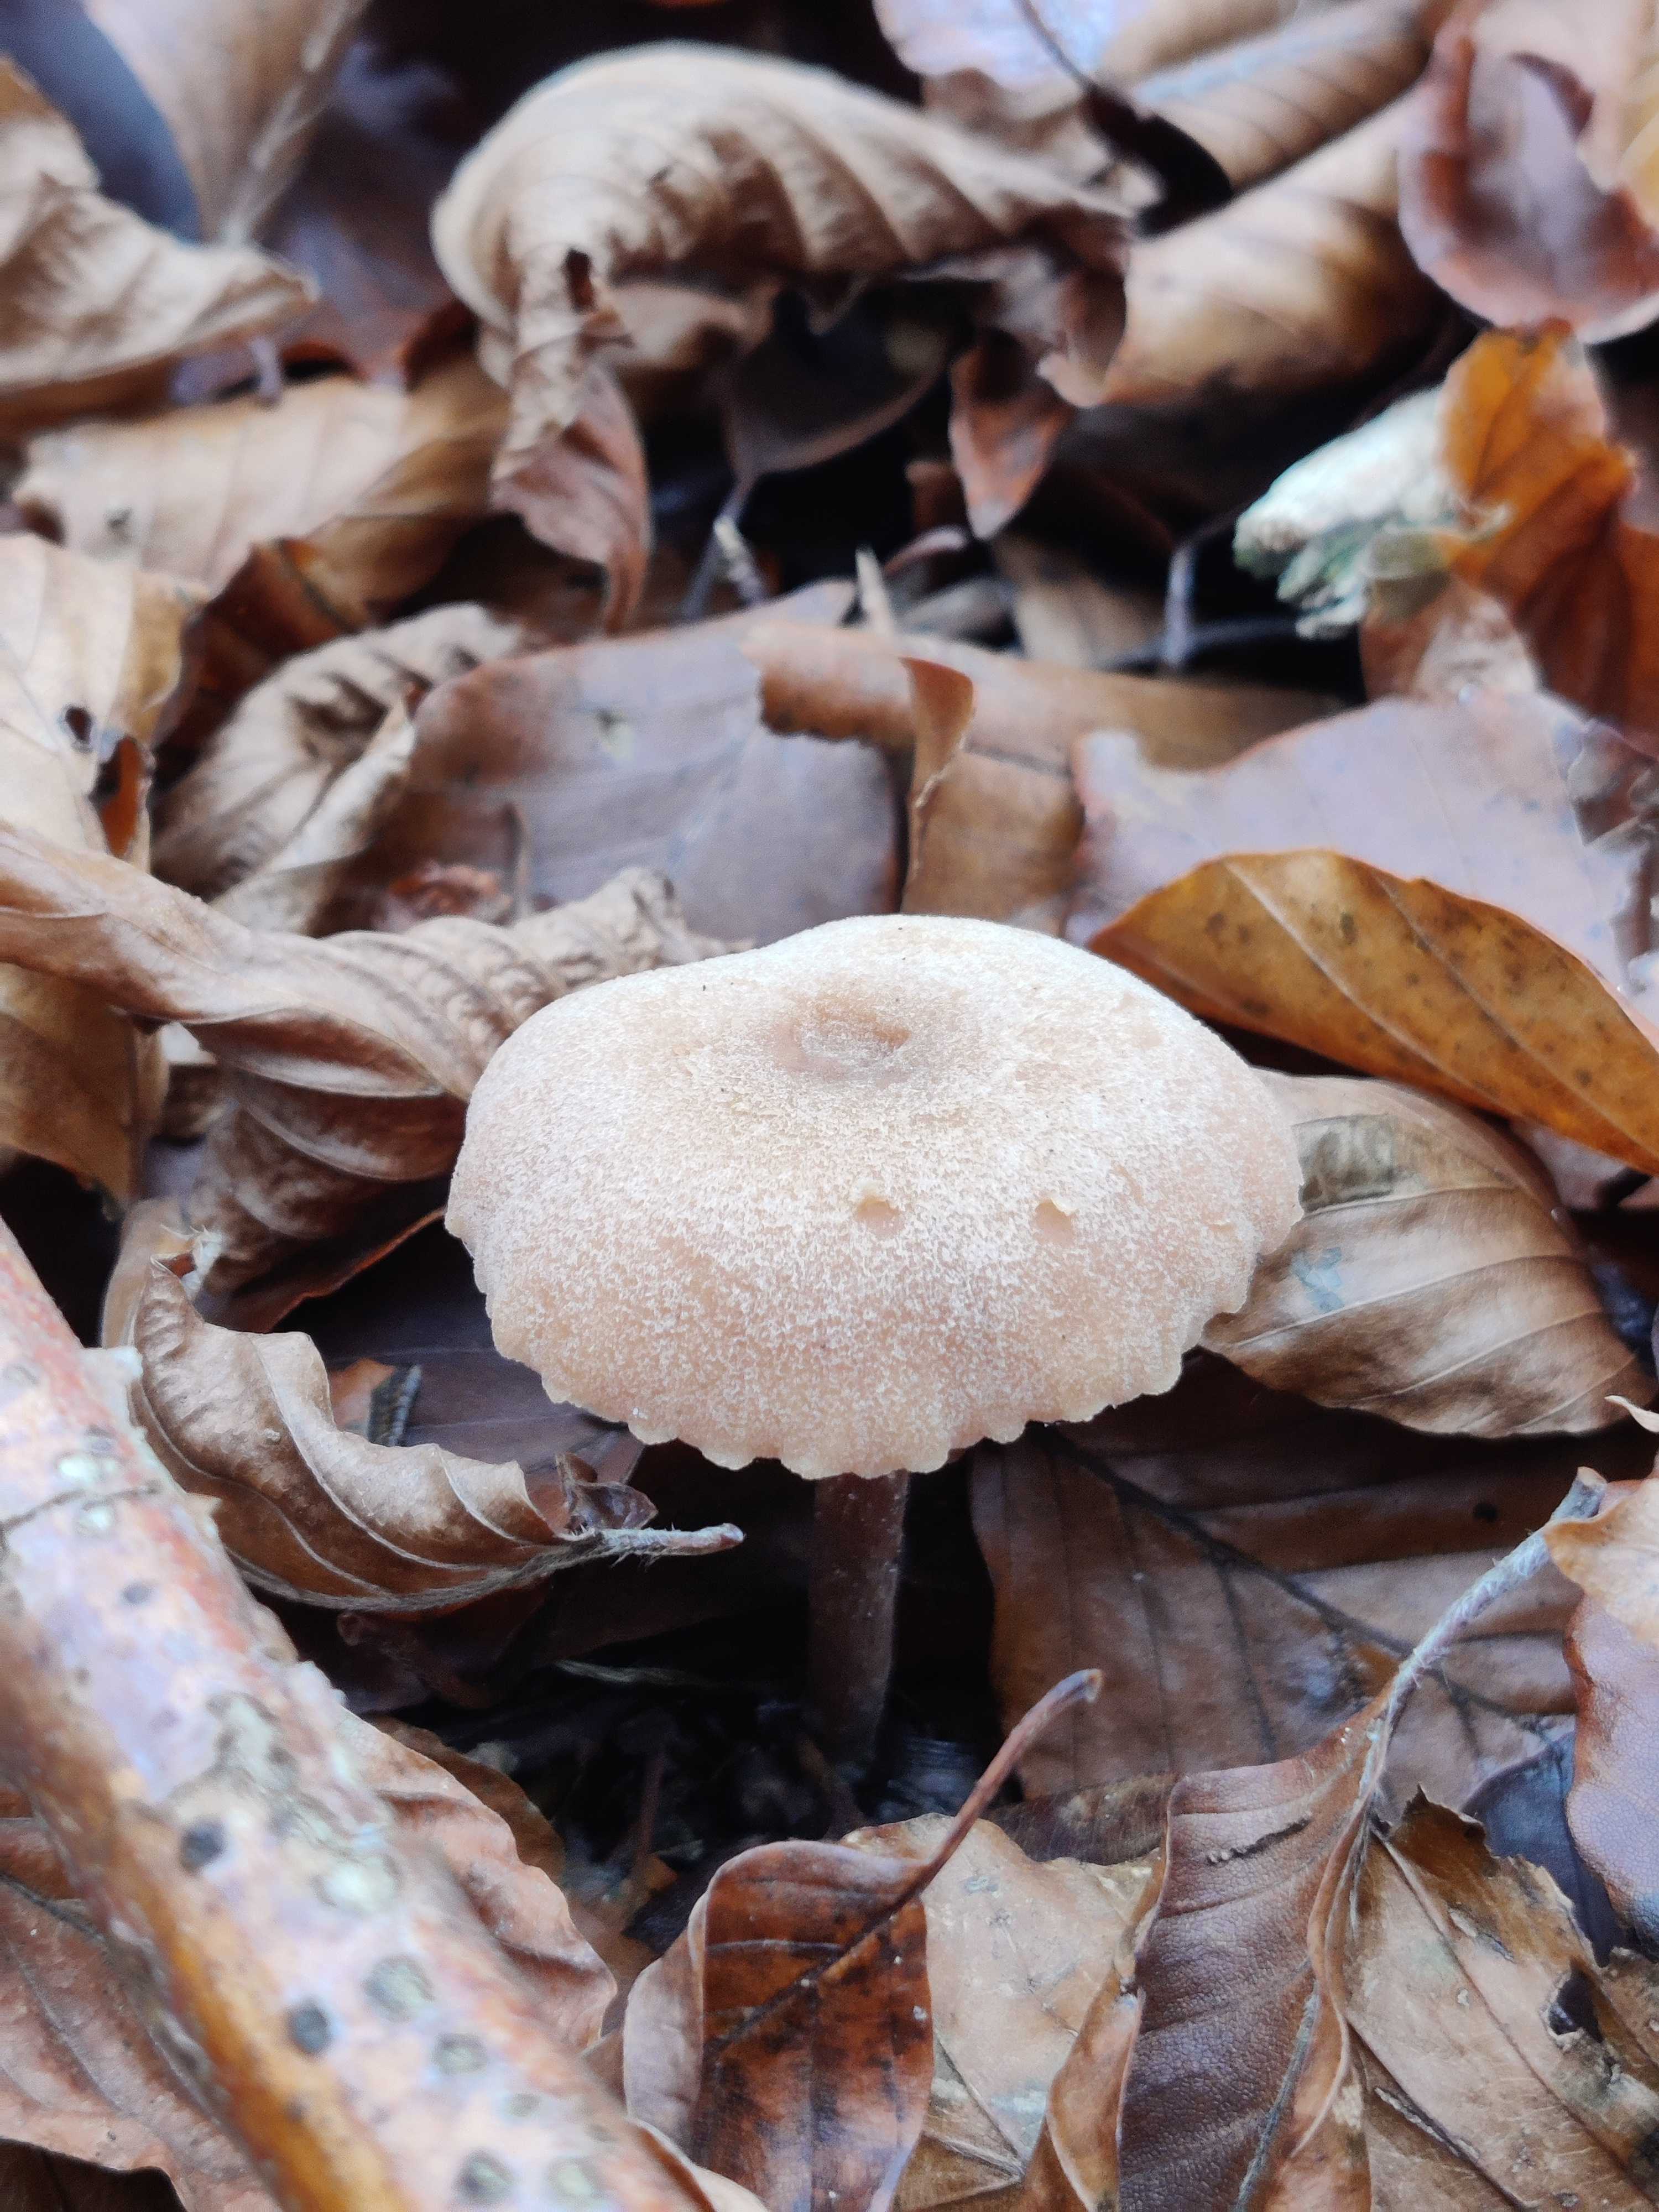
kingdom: Fungi
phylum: Basidiomycota
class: Agaricomycetes
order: Agaricales
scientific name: Agaricales
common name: champignonordenen
